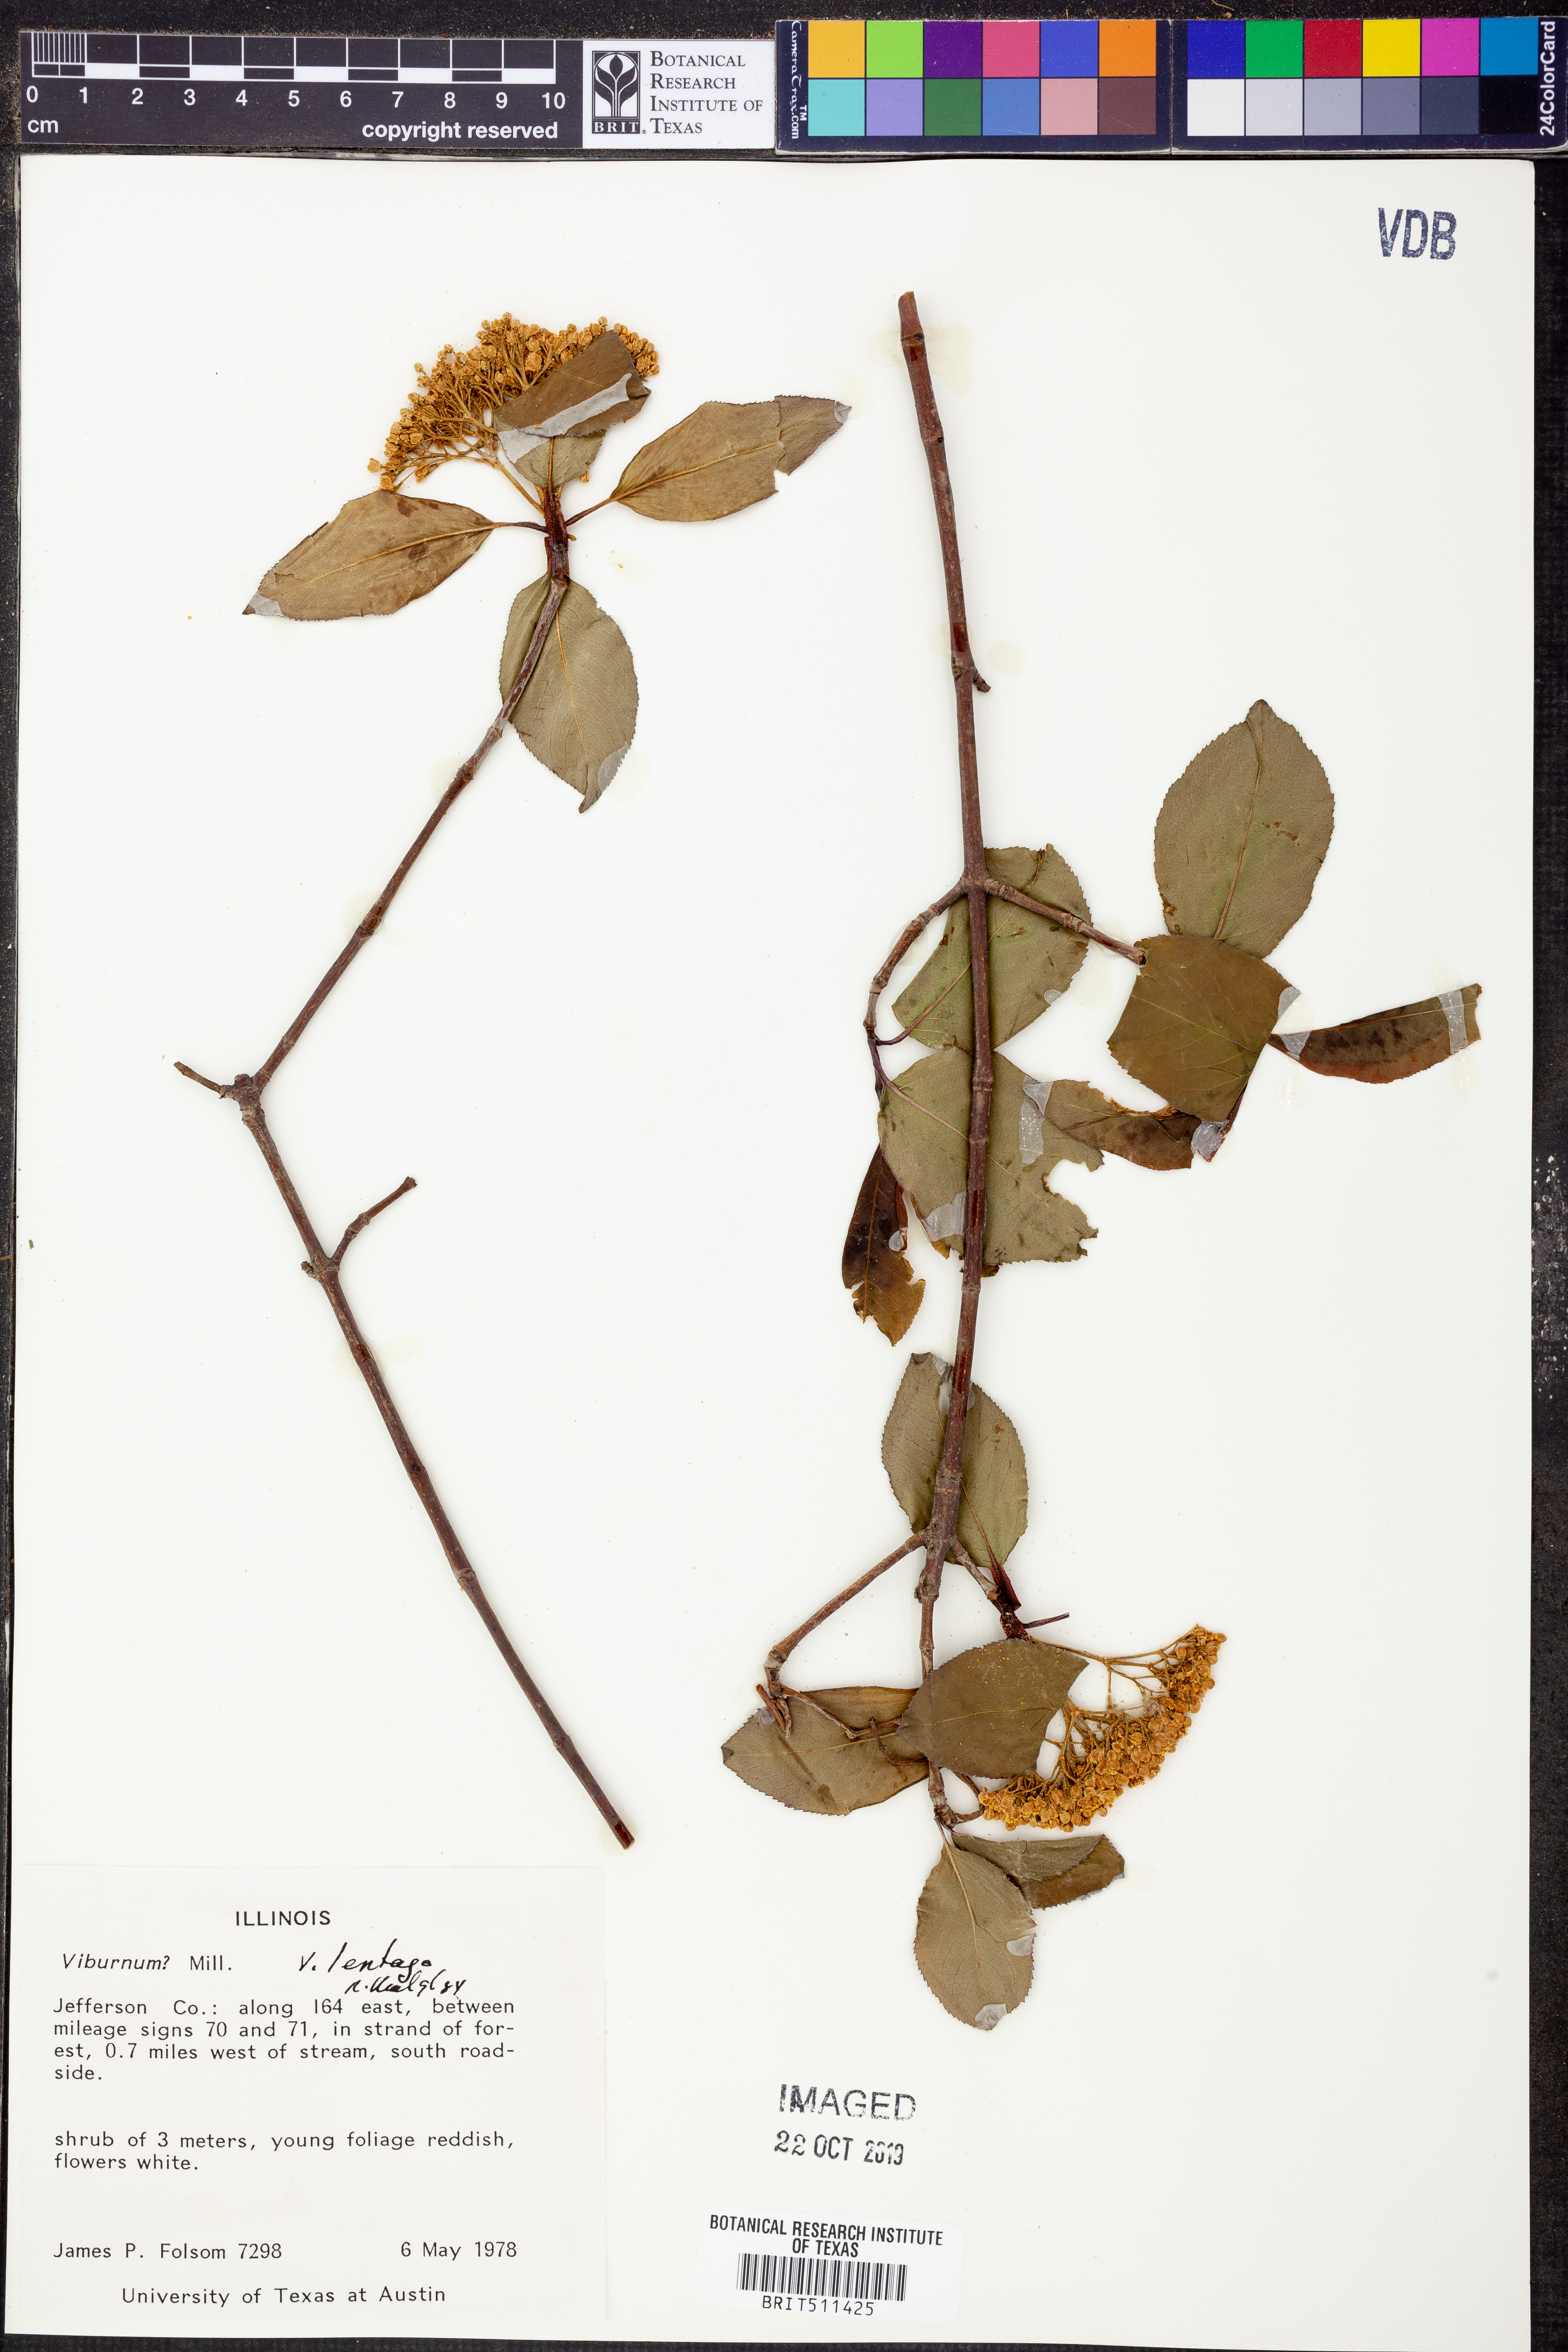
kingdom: Plantae
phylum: Tracheophyta
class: Magnoliopsida
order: Dipsacales
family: Viburnaceae
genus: Viburnum
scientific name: Viburnum lentago
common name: Black haw
